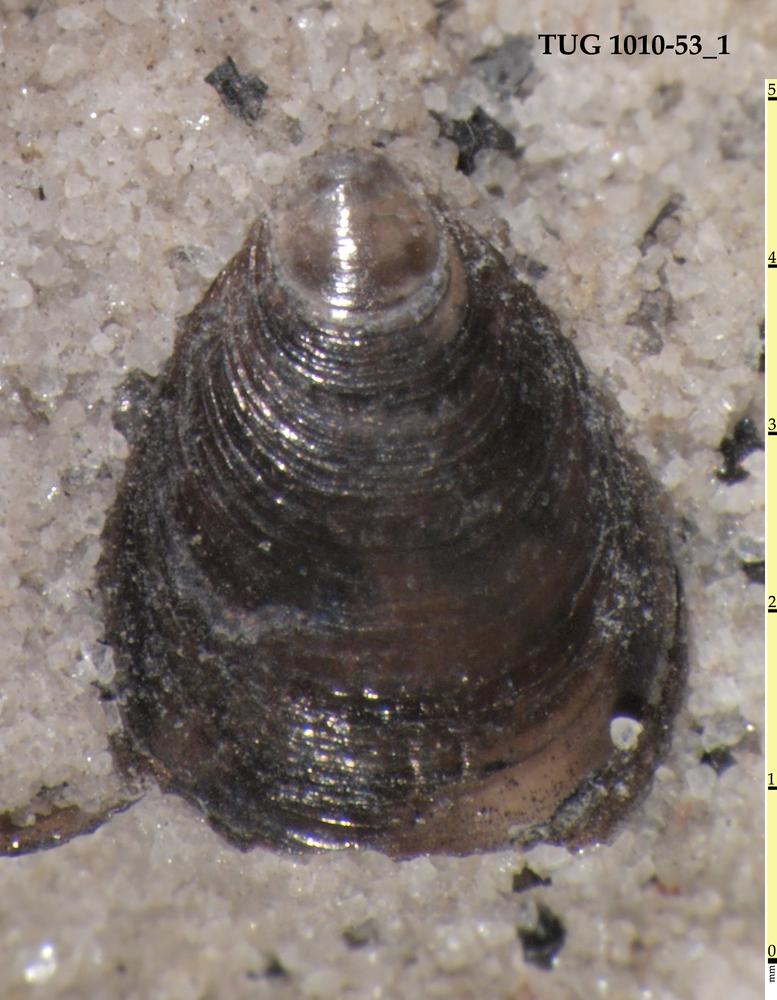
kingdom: Animalia
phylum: Brachiopoda
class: Lingulata
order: Lingulida
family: Obolidae
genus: Schmidtites
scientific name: Schmidtites Schmidtia celata
